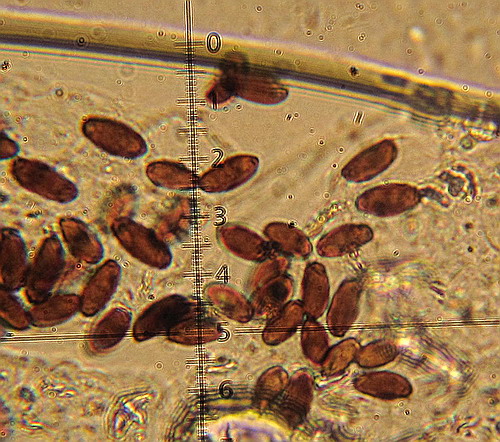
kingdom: Fungi
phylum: Basidiomycota
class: Agaricomycetes
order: Agaricales
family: Psathyrellaceae
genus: Coprinellus
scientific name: Coprinellus pusillulus
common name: lillebitte blækhat
